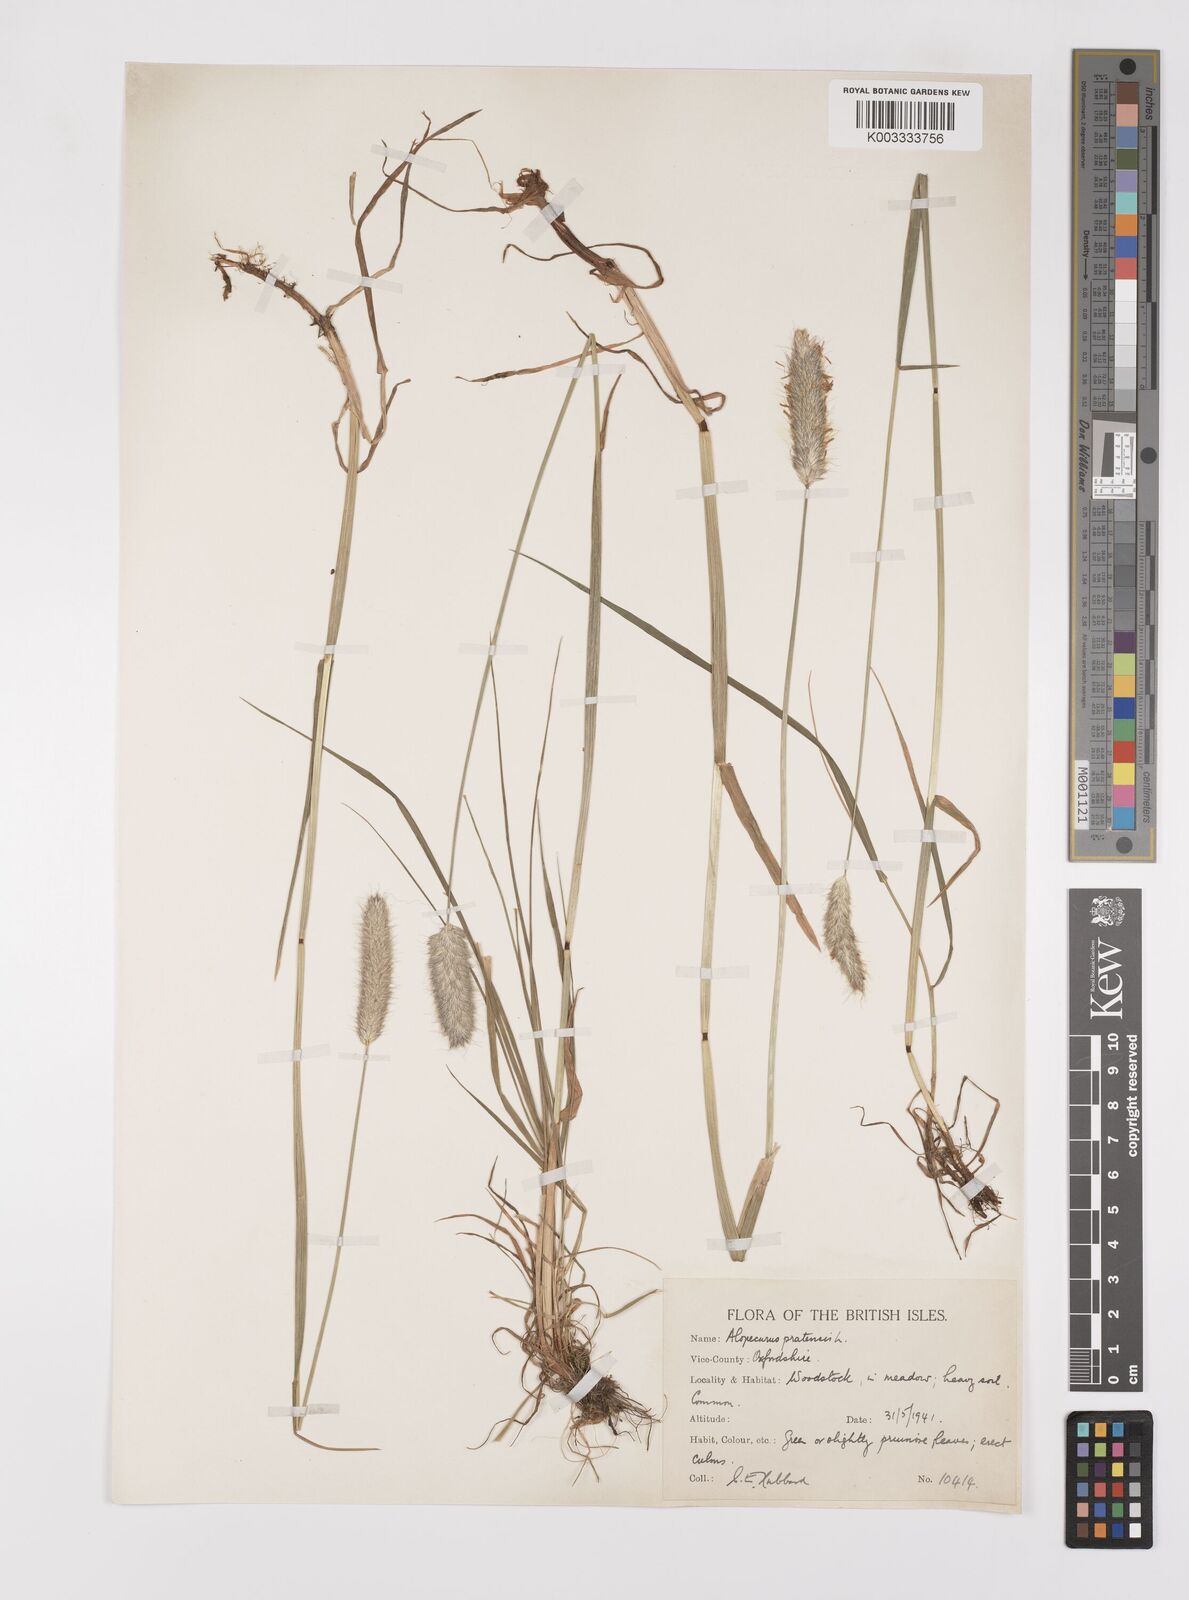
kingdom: Plantae
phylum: Tracheophyta
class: Liliopsida
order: Poales
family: Poaceae
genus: Alopecurus
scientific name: Alopecurus pratensis
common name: Meadow foxtail
